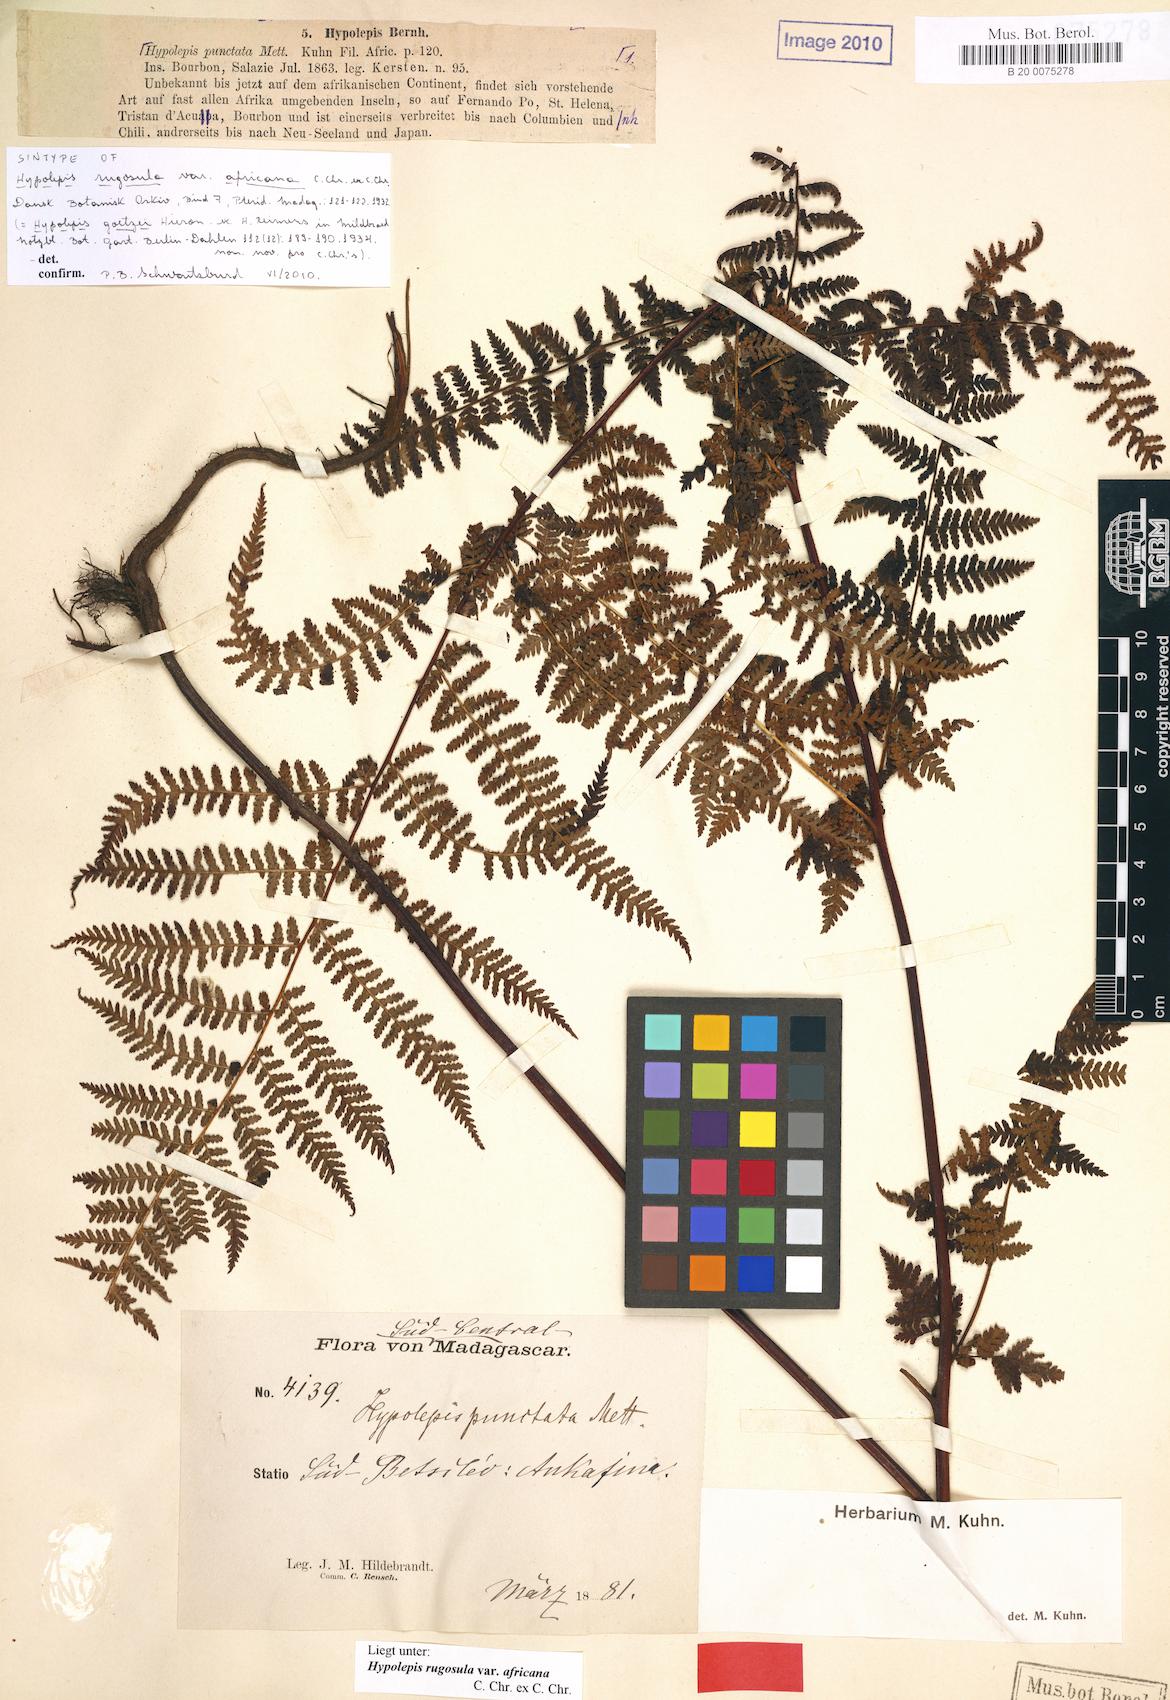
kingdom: Plantae
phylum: Tracheophyta
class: Polypodiopsida
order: Polypodiales
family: Dennstaedtiaceae
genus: Hypolepis
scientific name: Hypolepis rugosula
